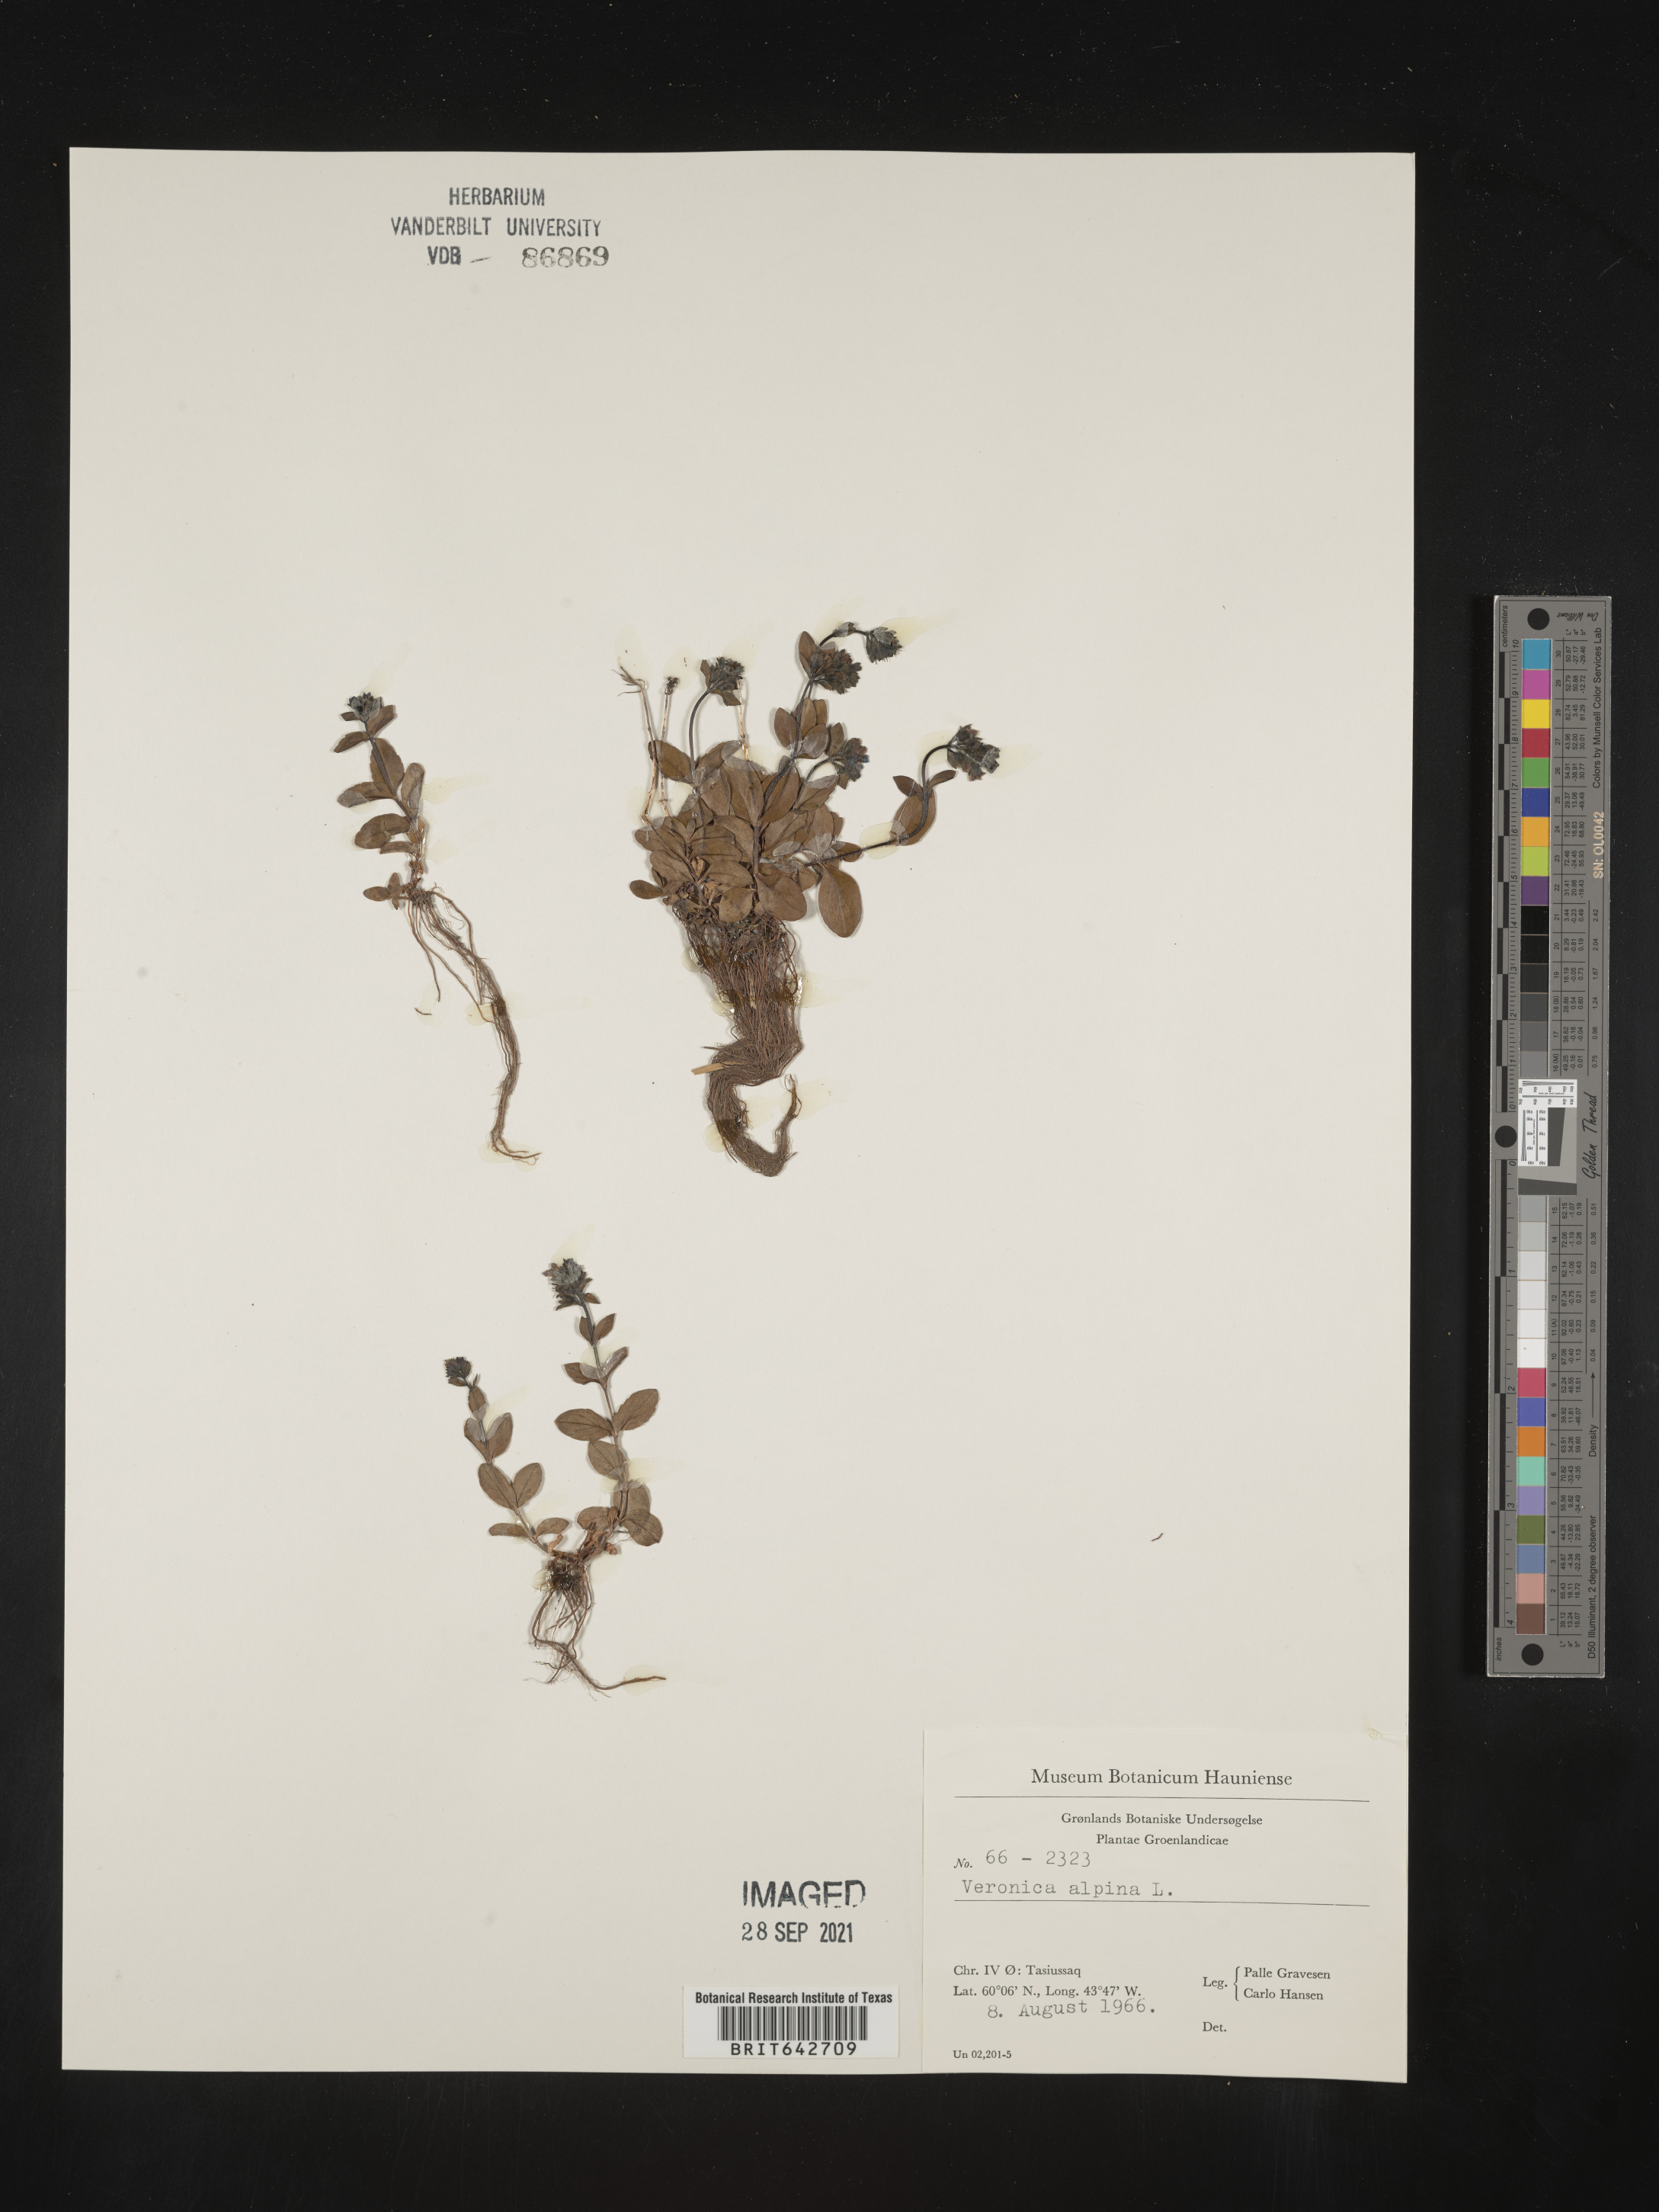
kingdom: Plantae
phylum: Tracheophyta
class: Magnoliopsida
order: Lamiales
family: Plantaginaceae
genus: Veronica
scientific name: Veronica
